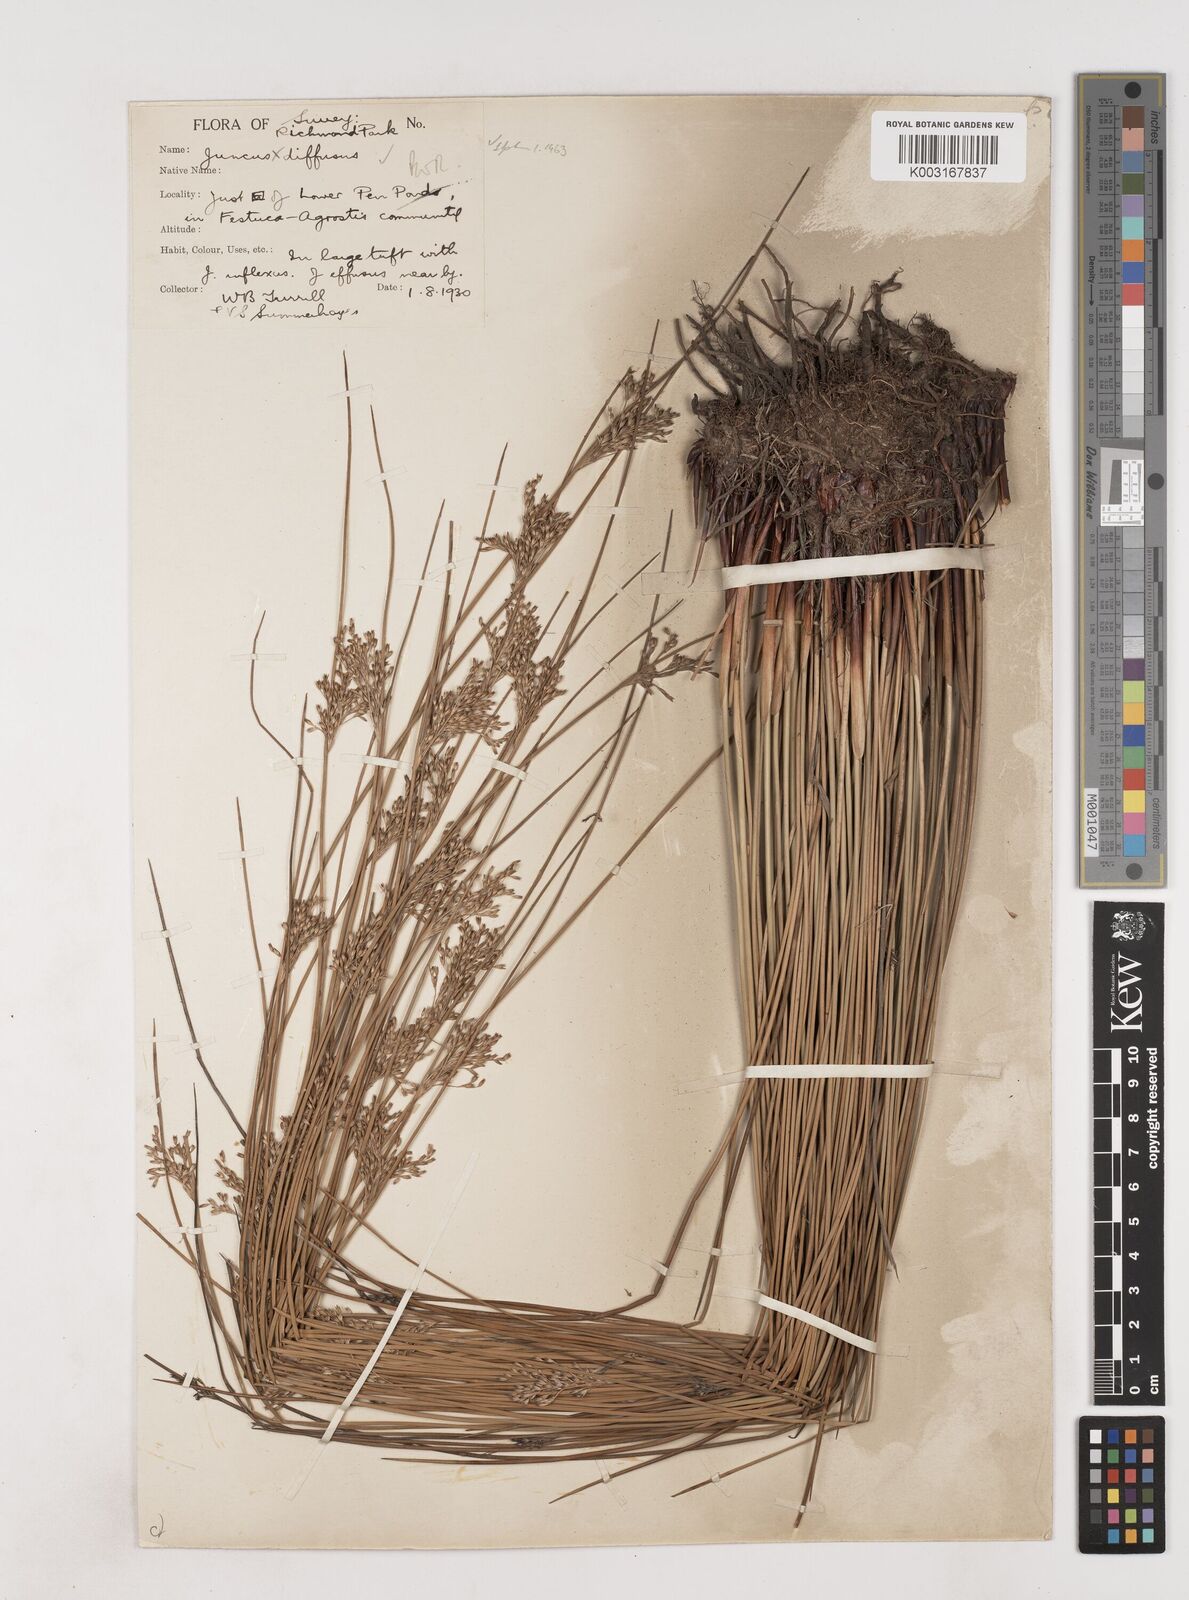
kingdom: Plantae
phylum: Tracheophyta
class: Liliopsida
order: Poales
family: Juncaceae
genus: Juncus
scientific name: Juncus effusus
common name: Soft rush
